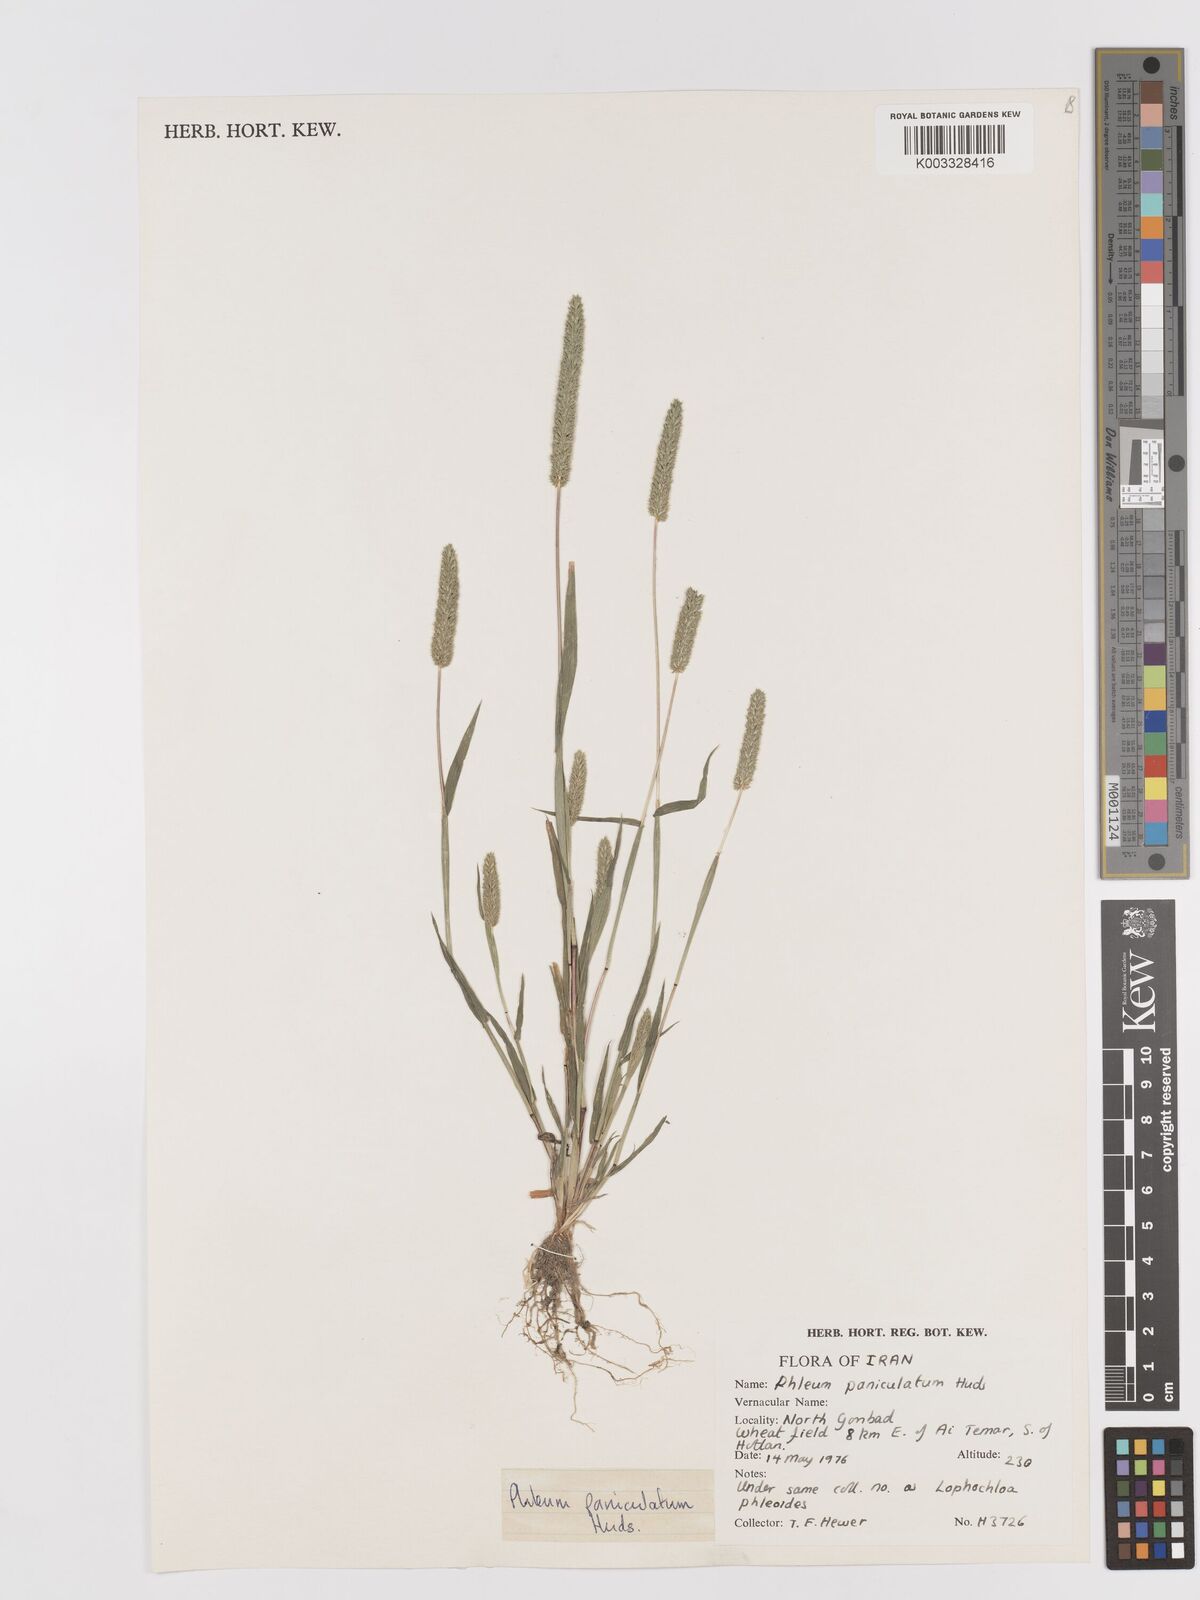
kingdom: Plantae
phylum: Tracheophyta
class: Liliopsida
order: Poales
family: Poaceae
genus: Phleum
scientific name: Phleum paniculatum
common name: British timothy
